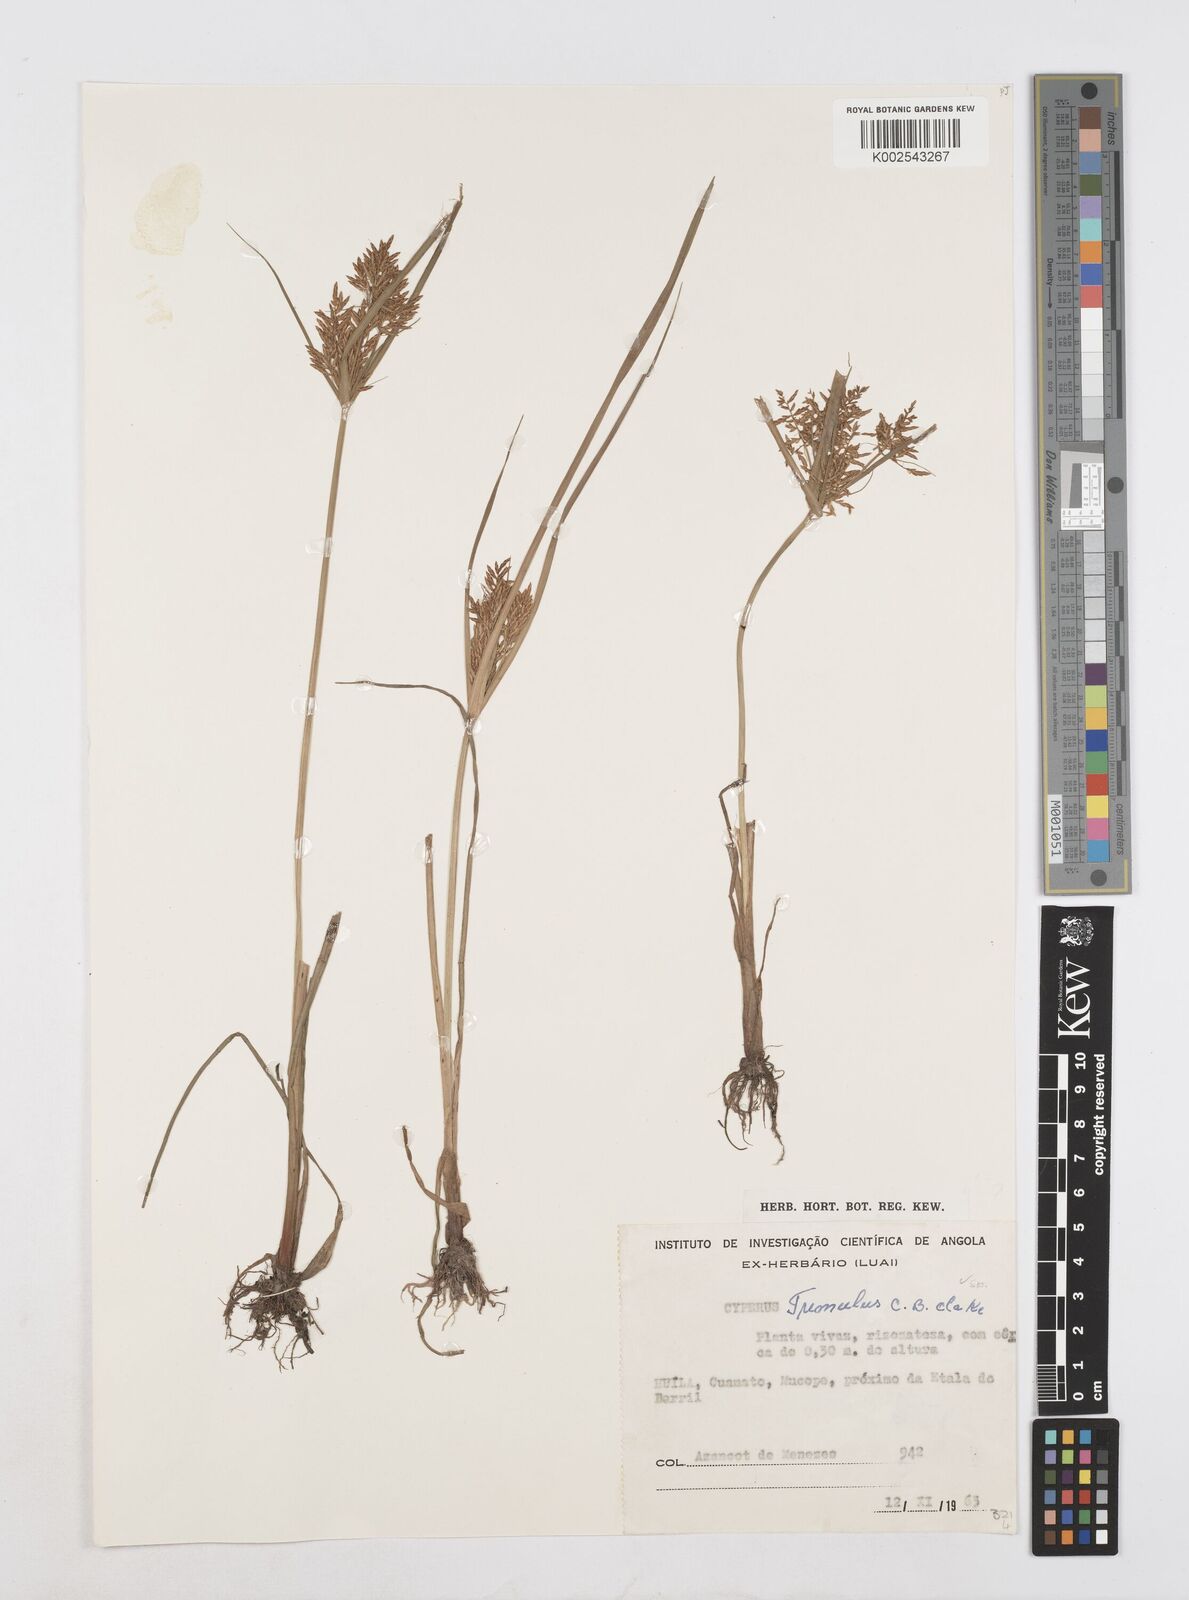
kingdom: Plantae
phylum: Tracheophyta
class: Liliopsida
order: Poales
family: Cyperaceae
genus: Cyperus
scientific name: Cyperus macrostachyos
